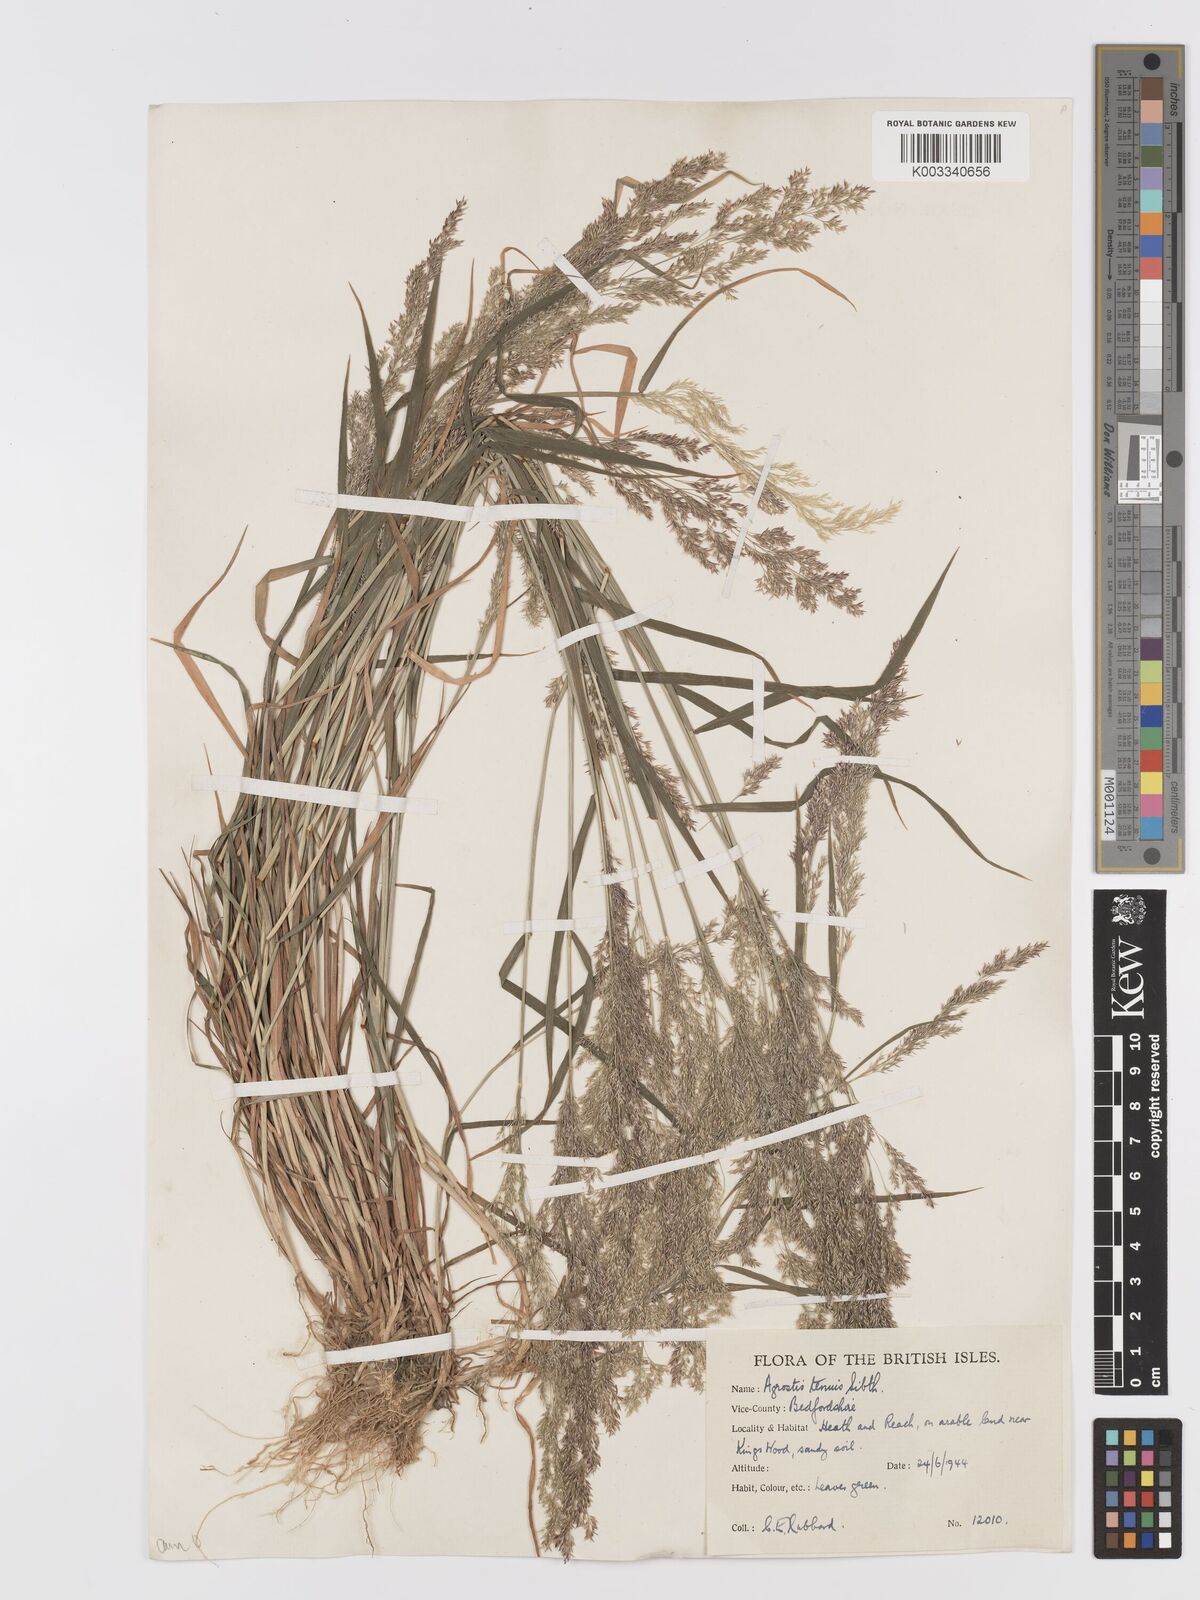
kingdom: Plantae
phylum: Tracheophyta
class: Liliopsida
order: Poales
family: Poaceae
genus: Agrostis
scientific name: Agrostis capillaris
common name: Colonial bentgrass
